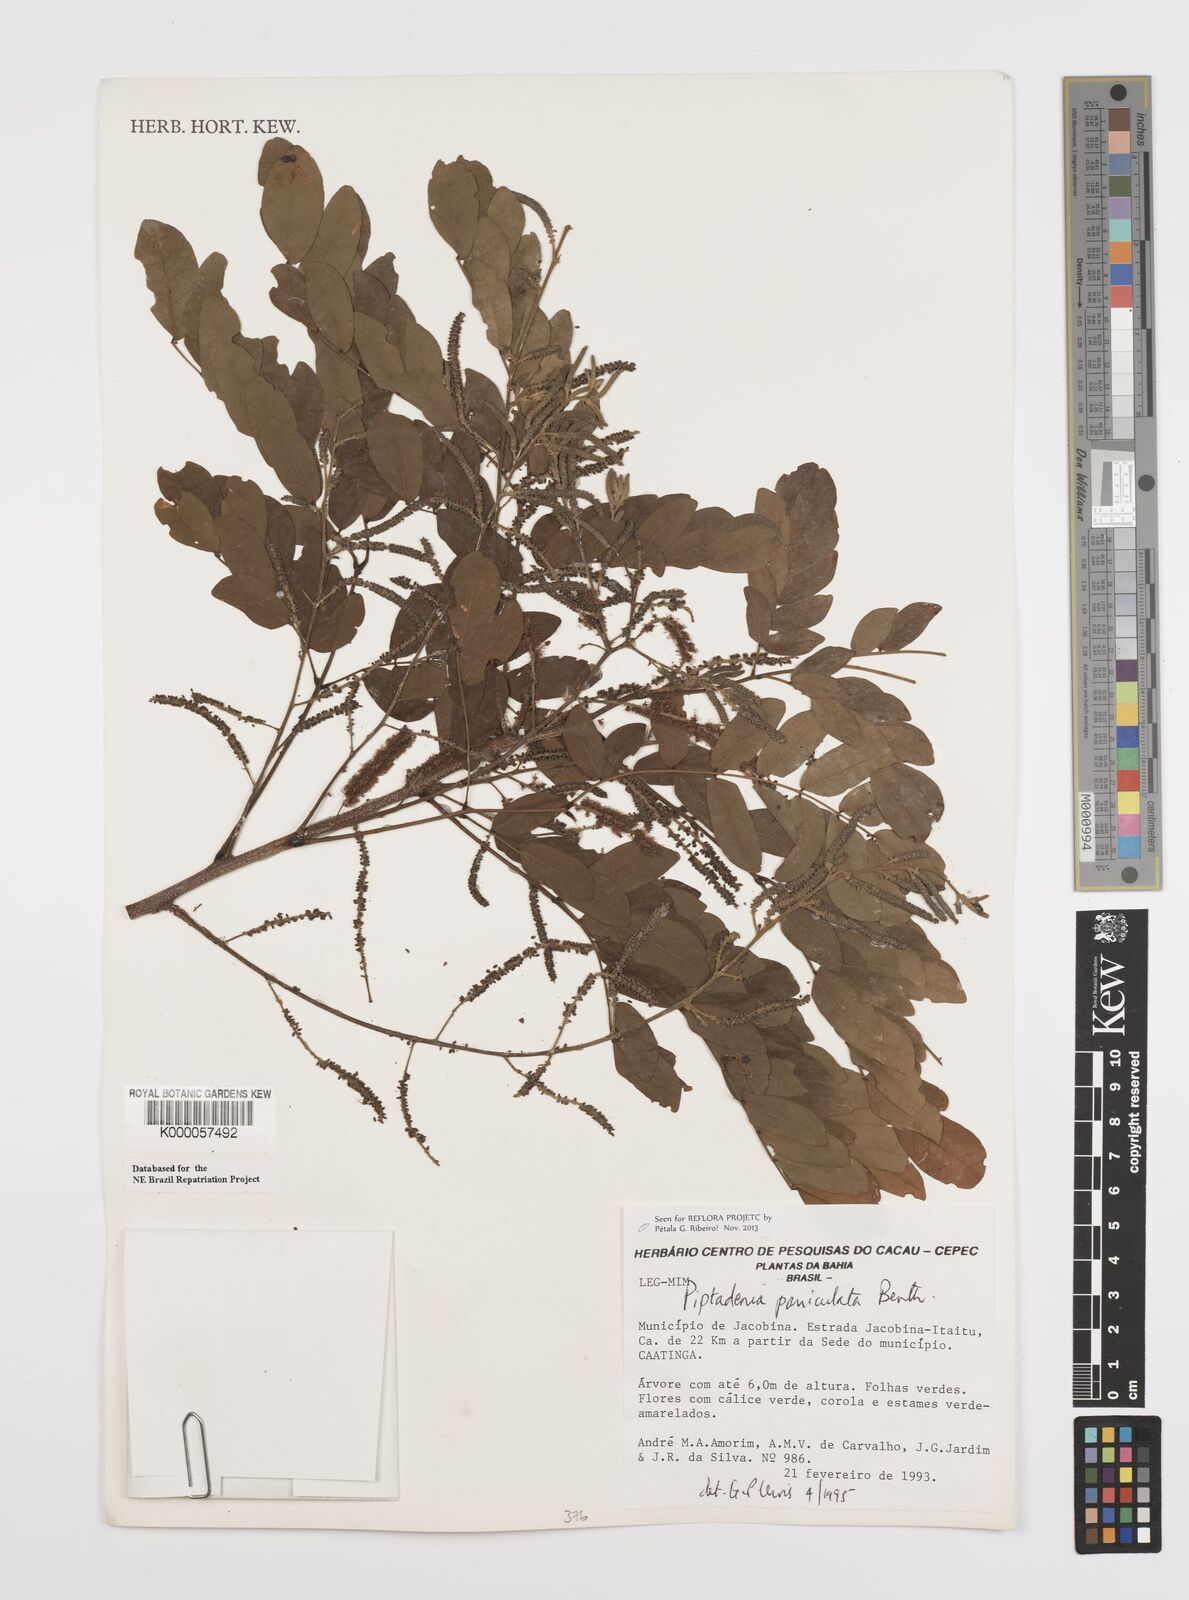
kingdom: Plantae
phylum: Tracheophyta
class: Magnoliopsida
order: Fabales
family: Fabaceae
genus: Piptadenia
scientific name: Piptadenia paniculata
